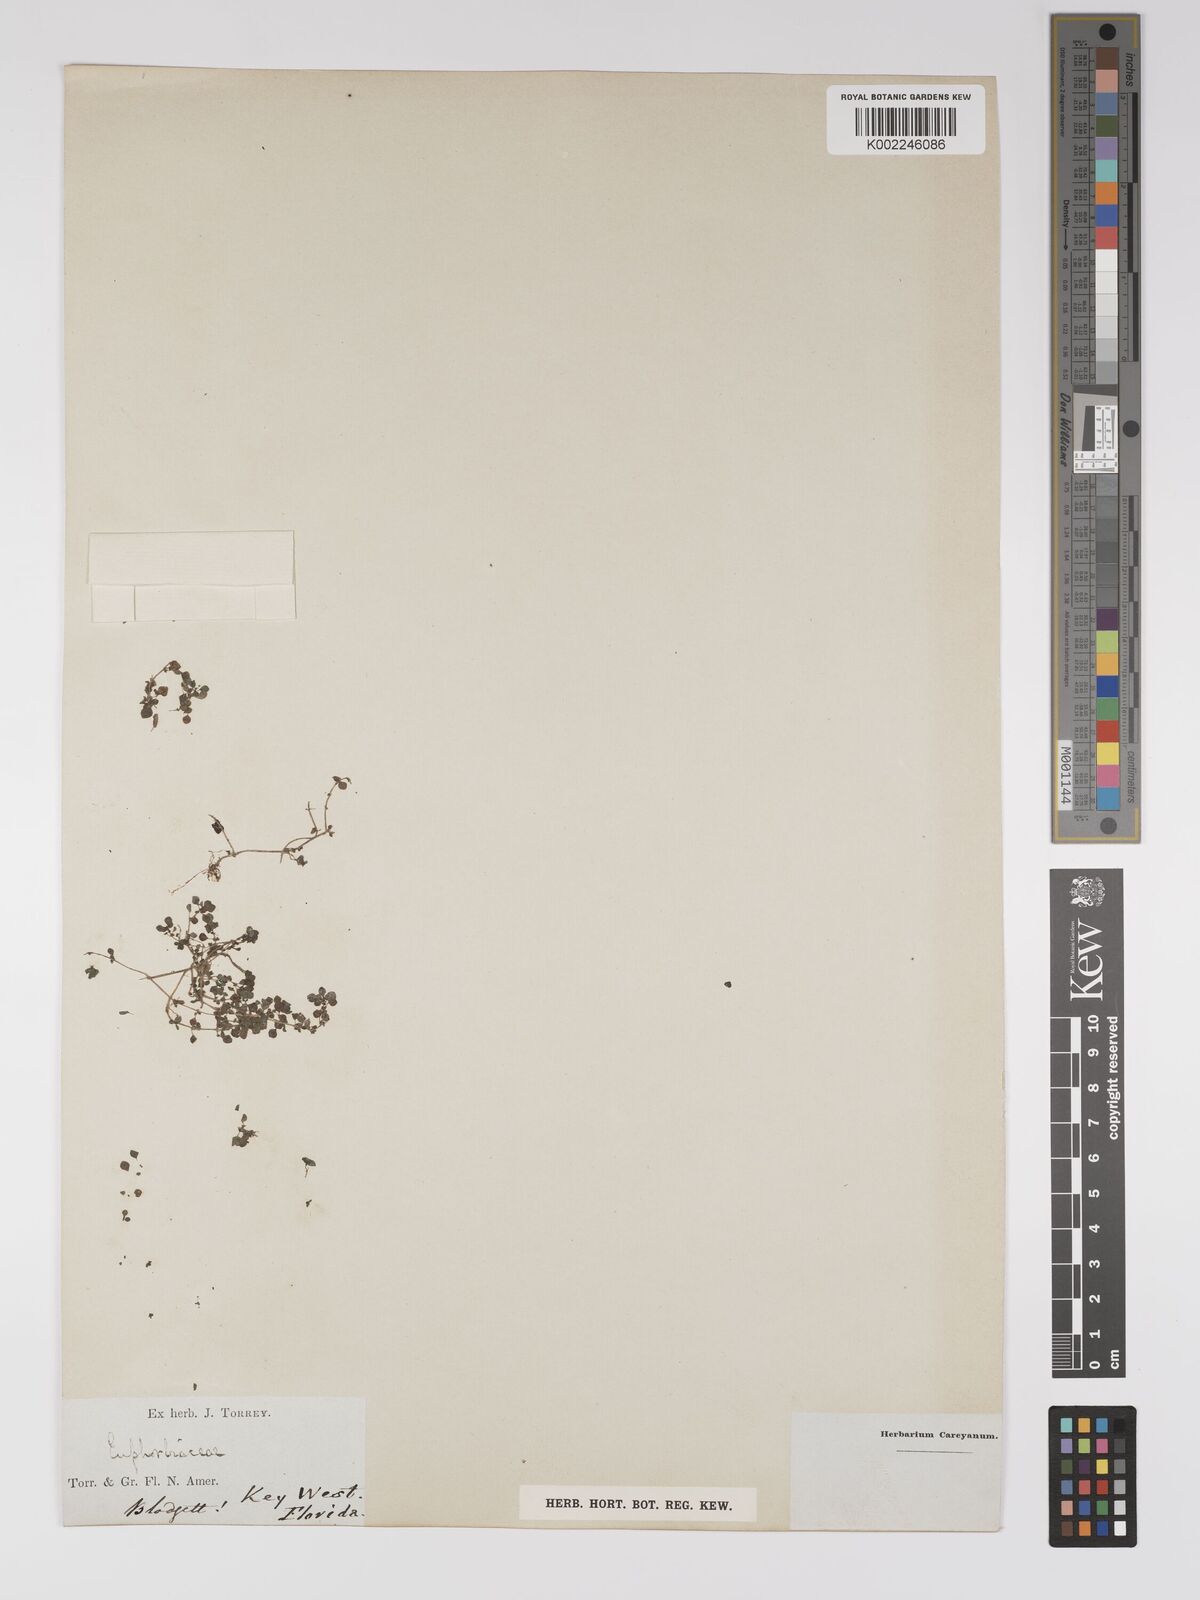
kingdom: Plantae
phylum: Tracheophyta
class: Magnoliopsida
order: Malpighiales
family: Euphorbiaceae
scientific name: Euphorbiaceae
